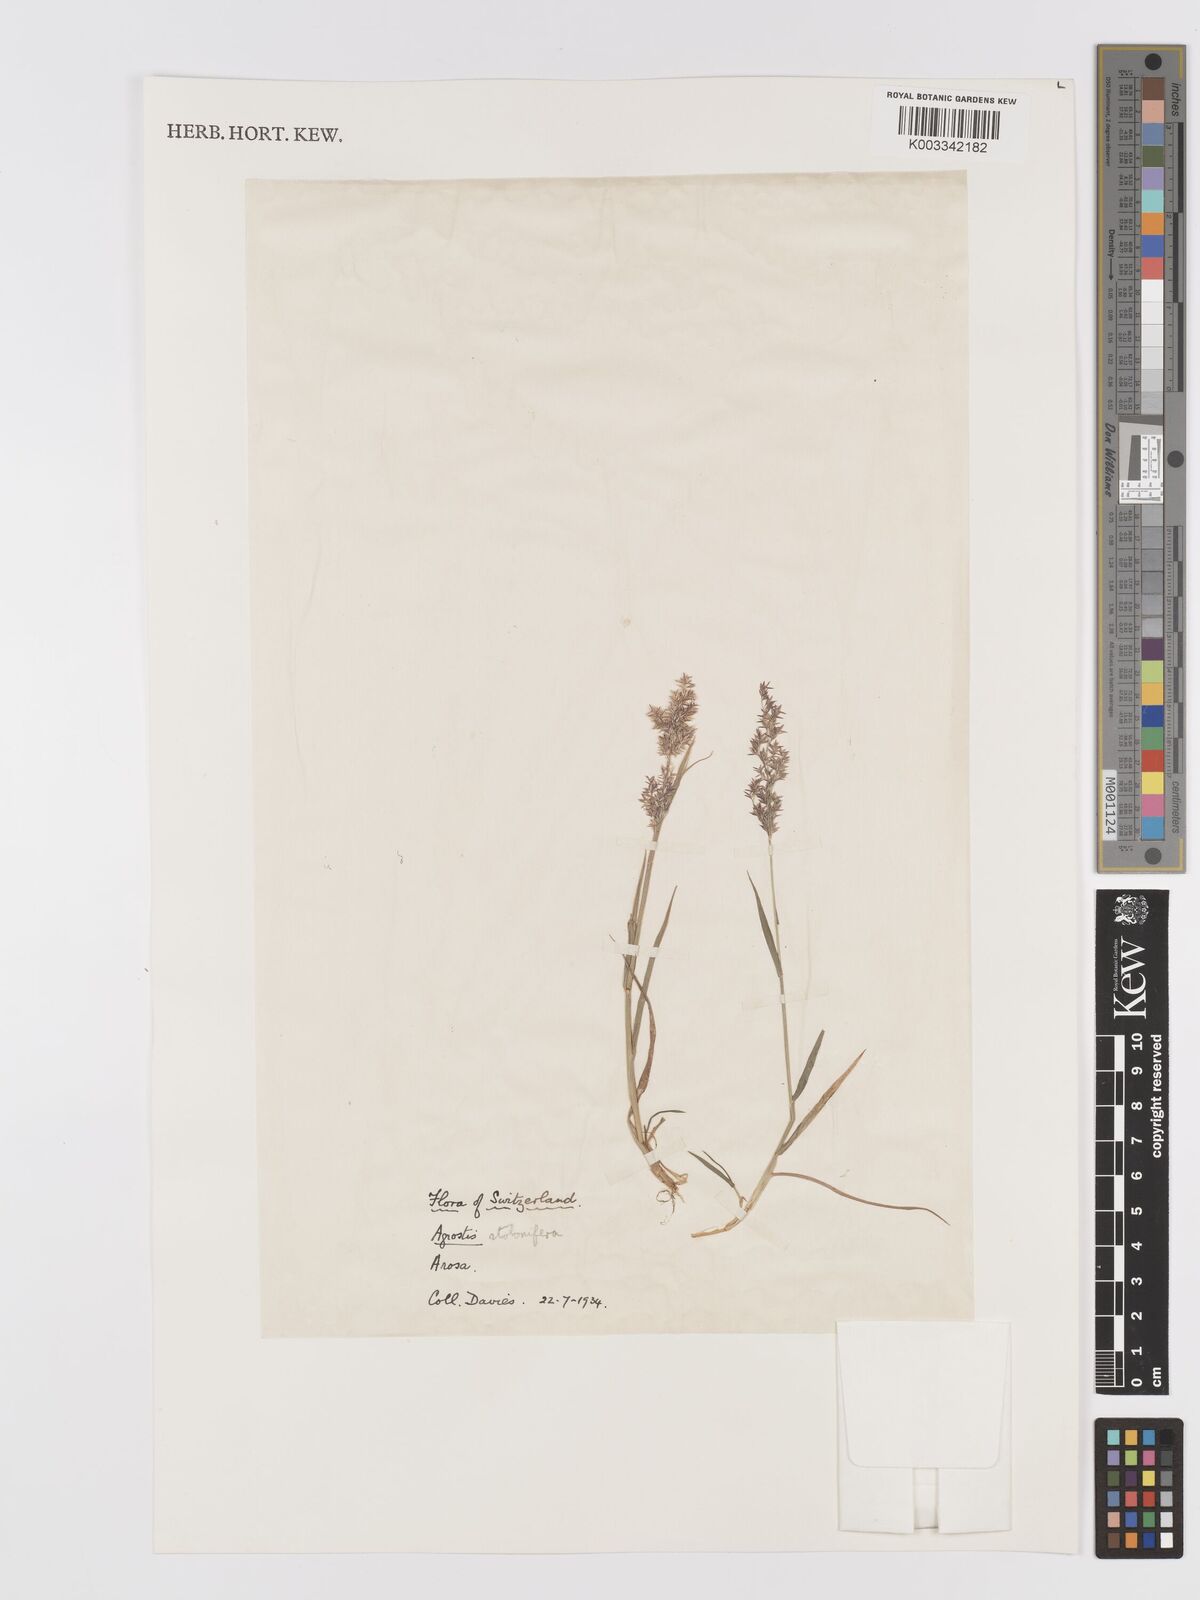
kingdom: Plantae
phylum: Tracheophyta
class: Liliopsida
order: Poales
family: Poaceae
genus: Agrostis
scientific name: Agrostis stolonifera
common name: Creeping bentgrass
